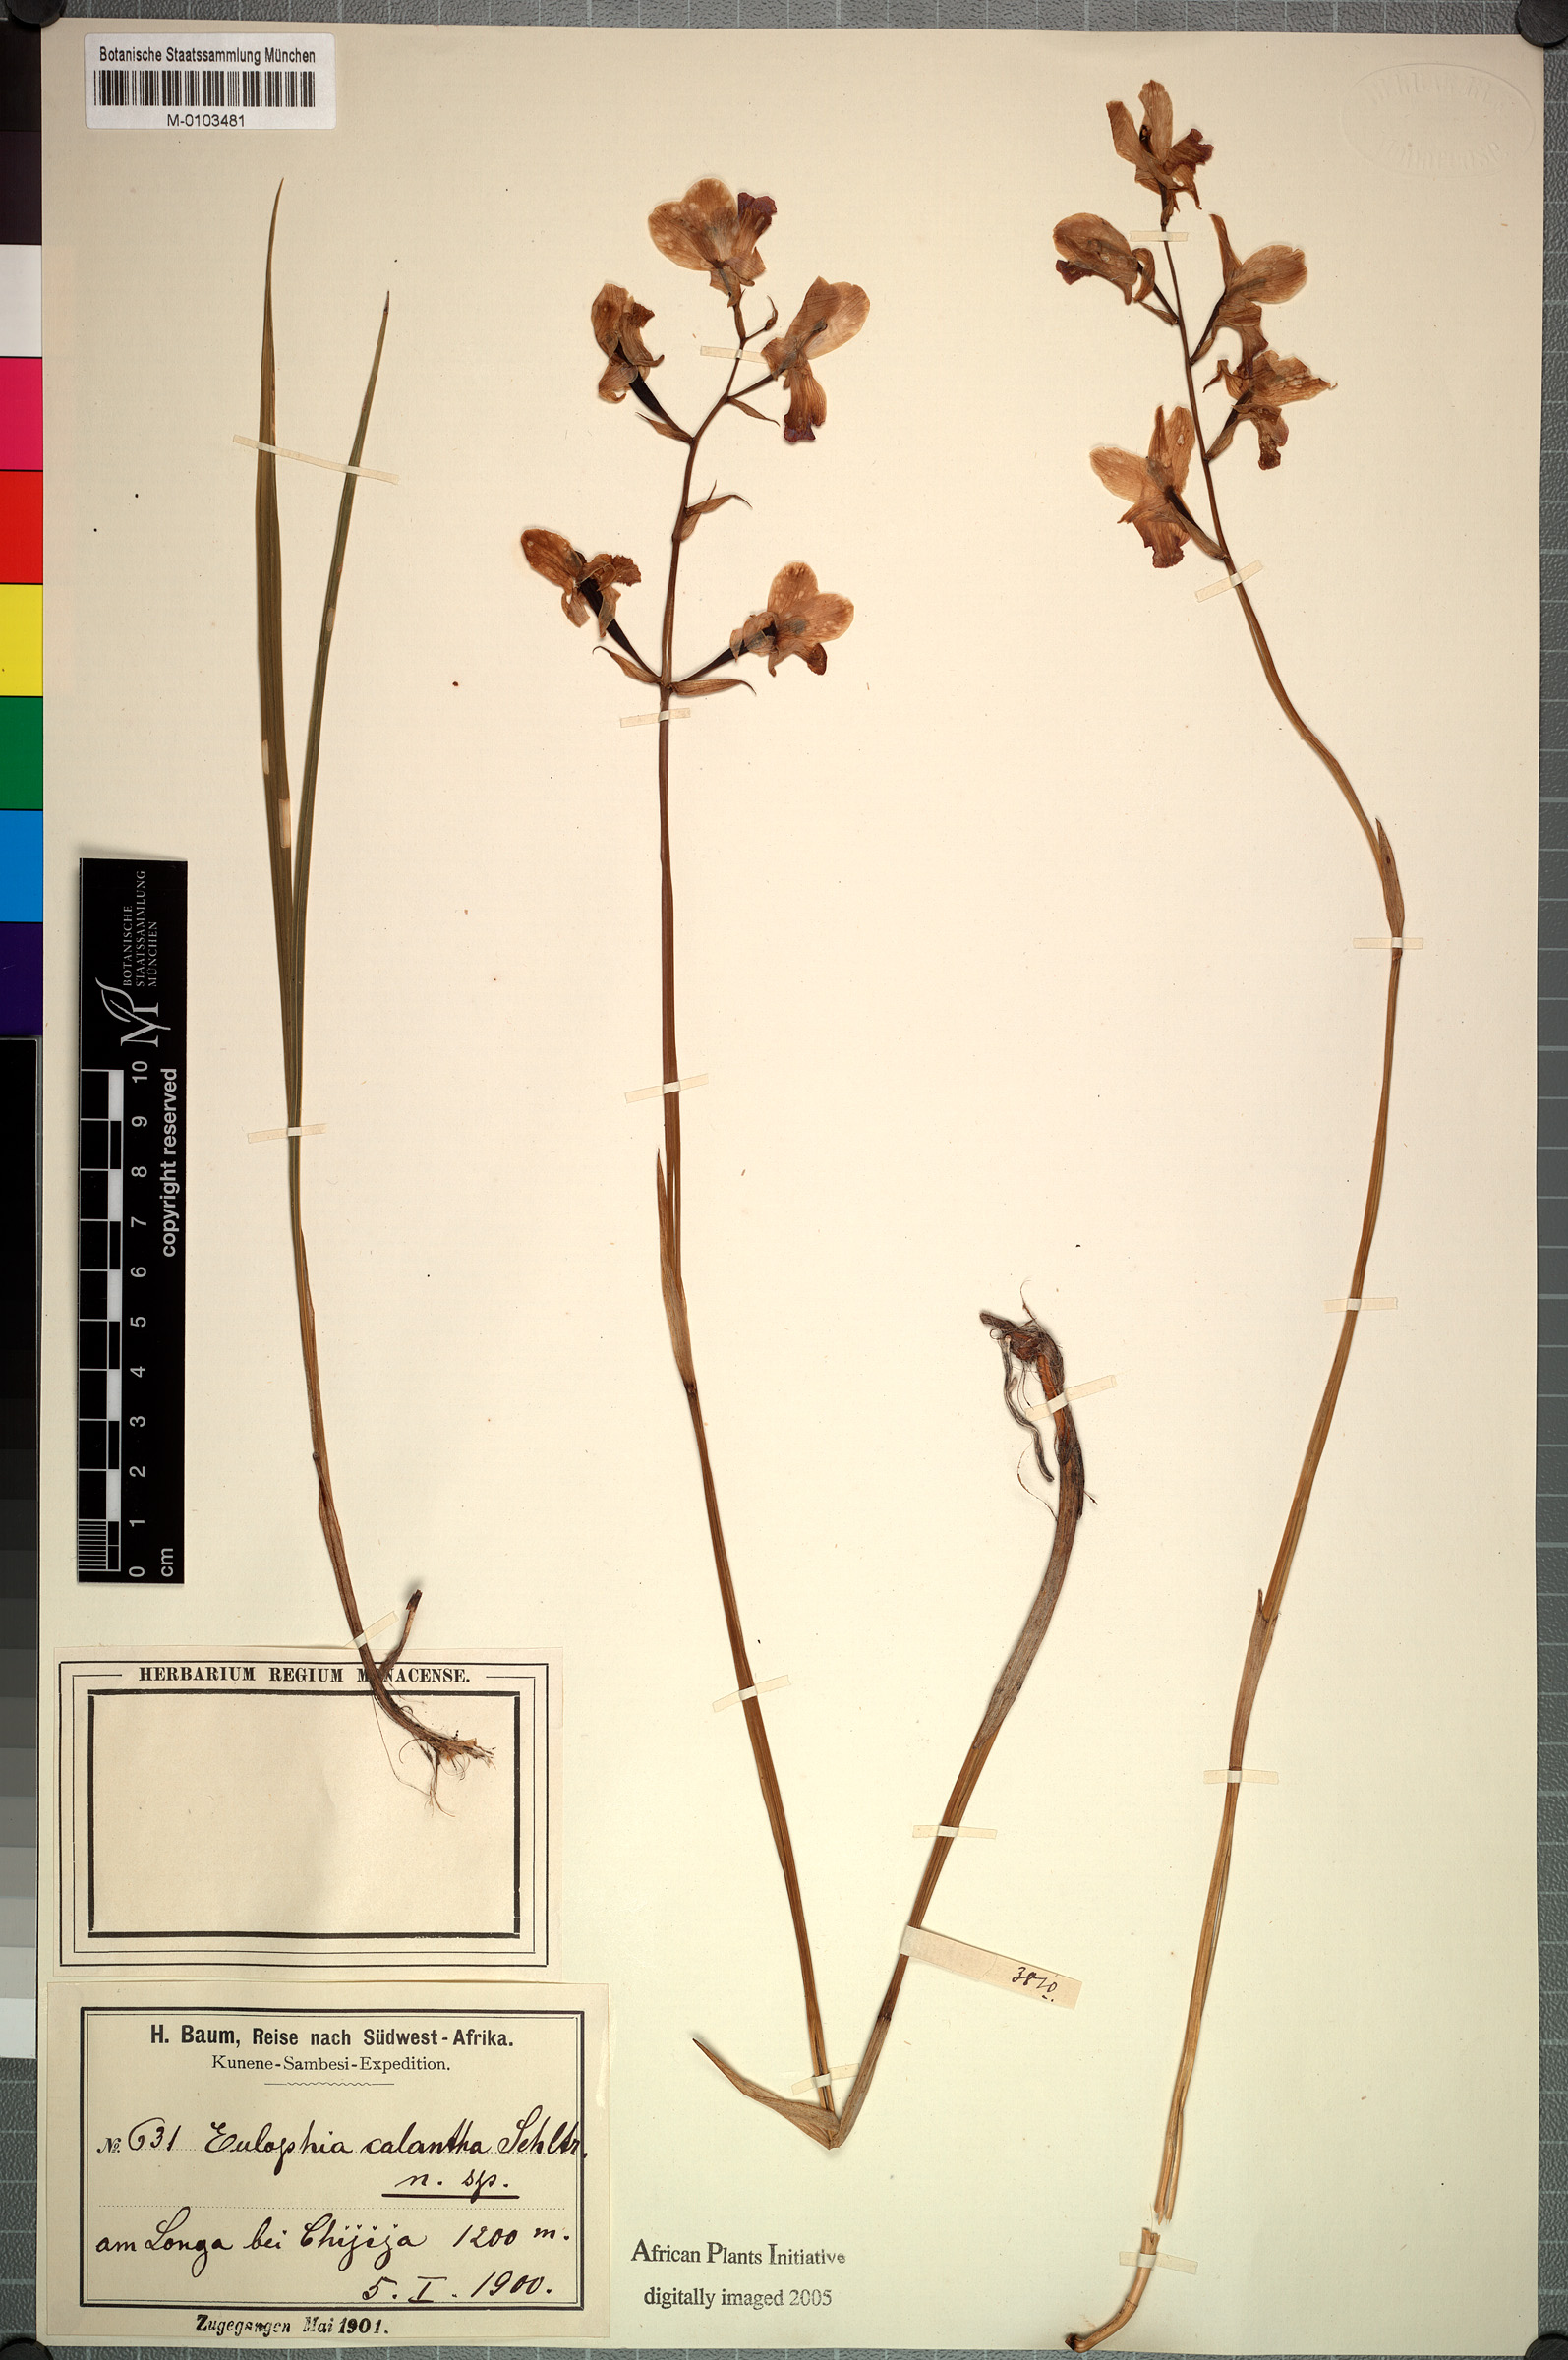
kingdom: Plantae
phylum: Tracheophyta
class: Liliopsida
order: Asparagales
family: Orchidaceae
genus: Eulophia
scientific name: Eulophia calantha
